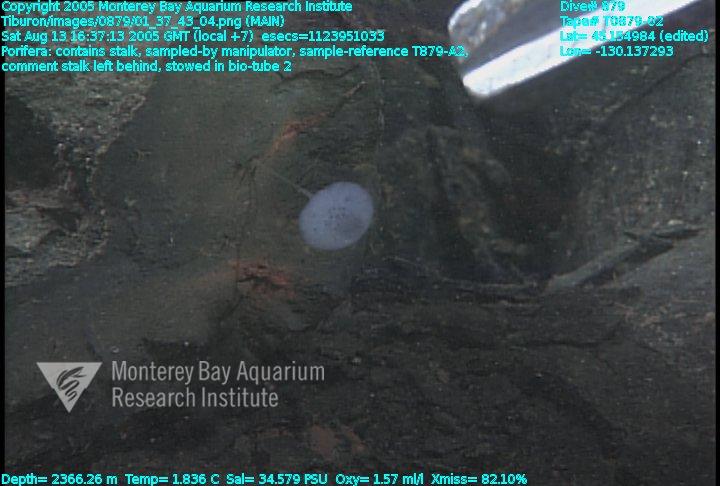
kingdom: Animalia
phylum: Porifera
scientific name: Porifera
